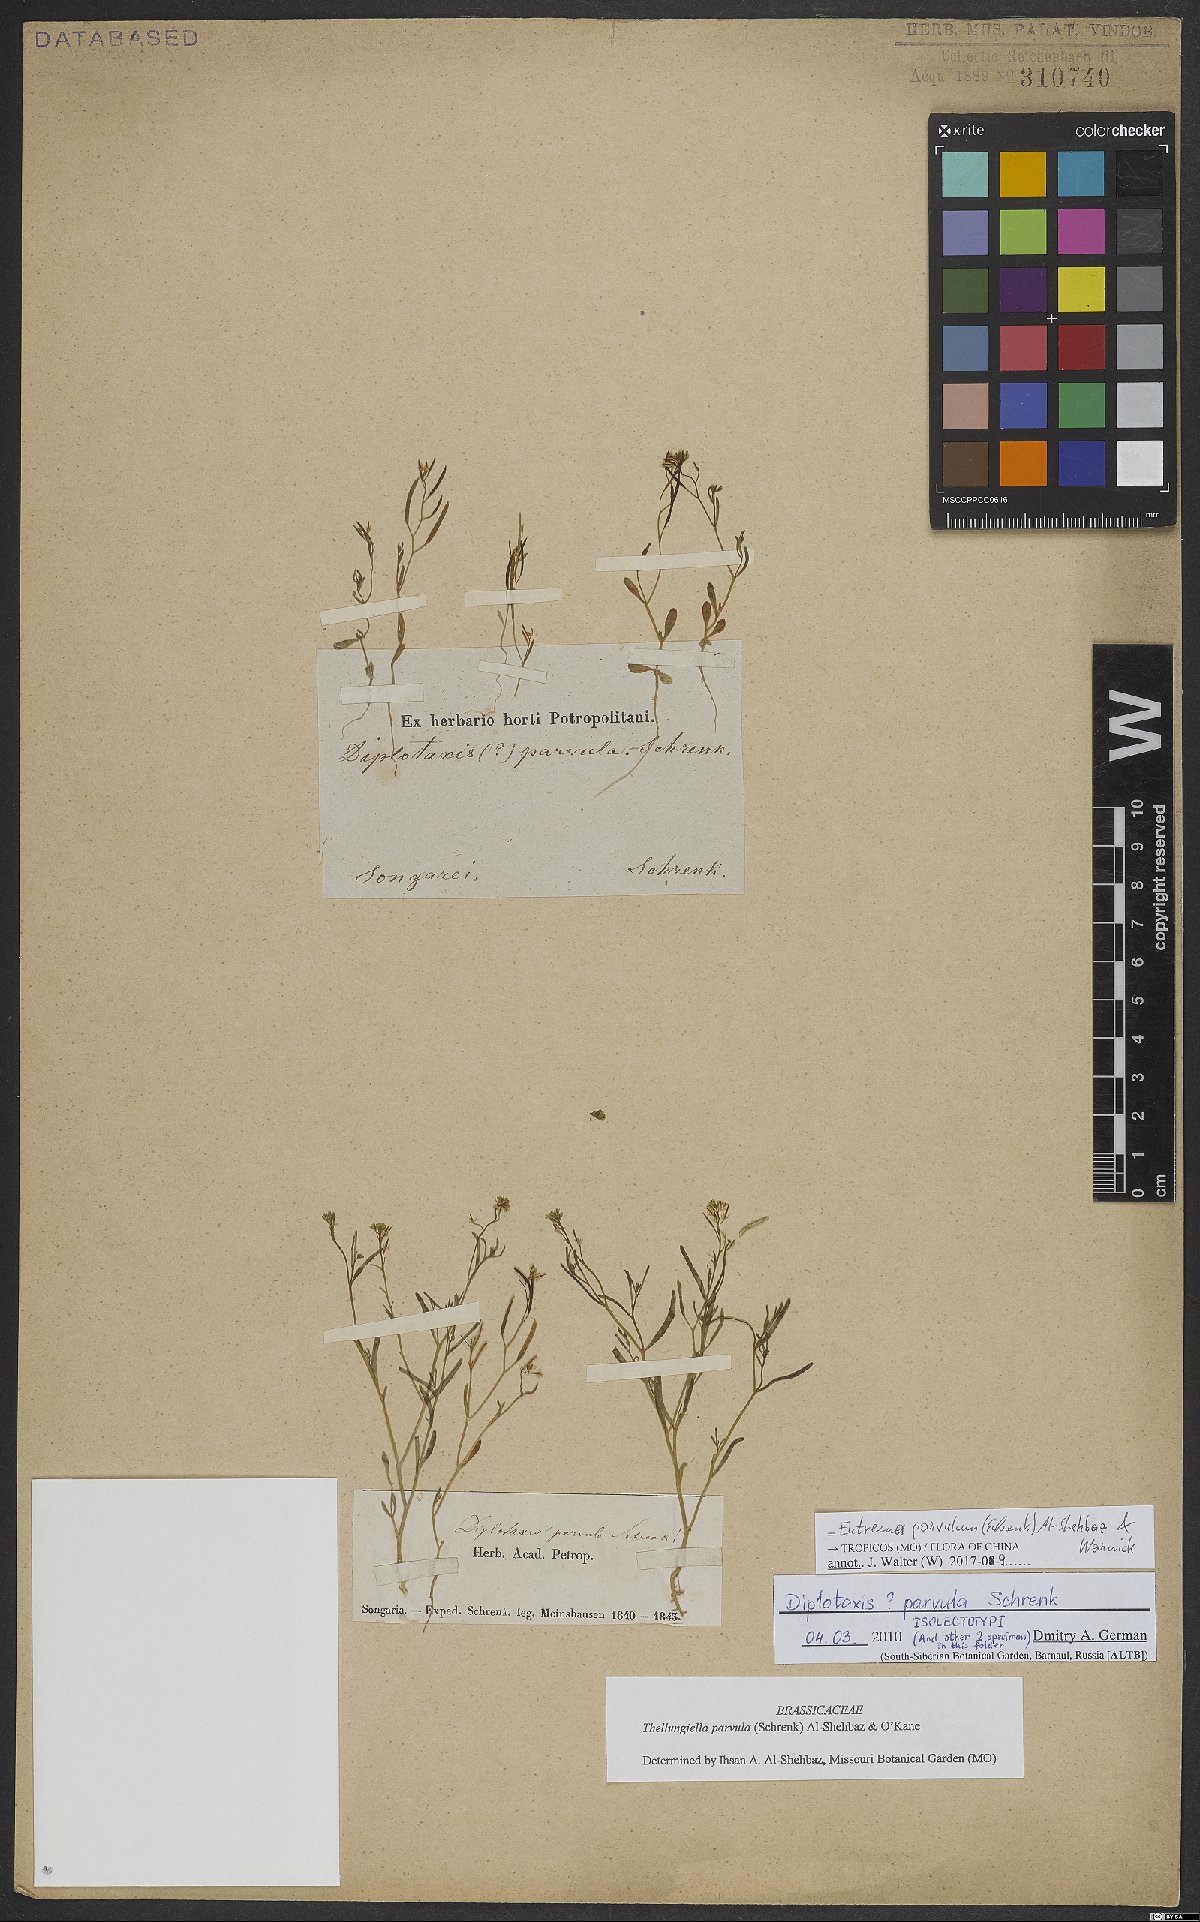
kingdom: Plantae
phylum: Tracheophyta
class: Magnoliopsida
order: Brassicales
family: Brassicaceae
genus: Schrenkiella
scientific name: Schrenkiella parvula
